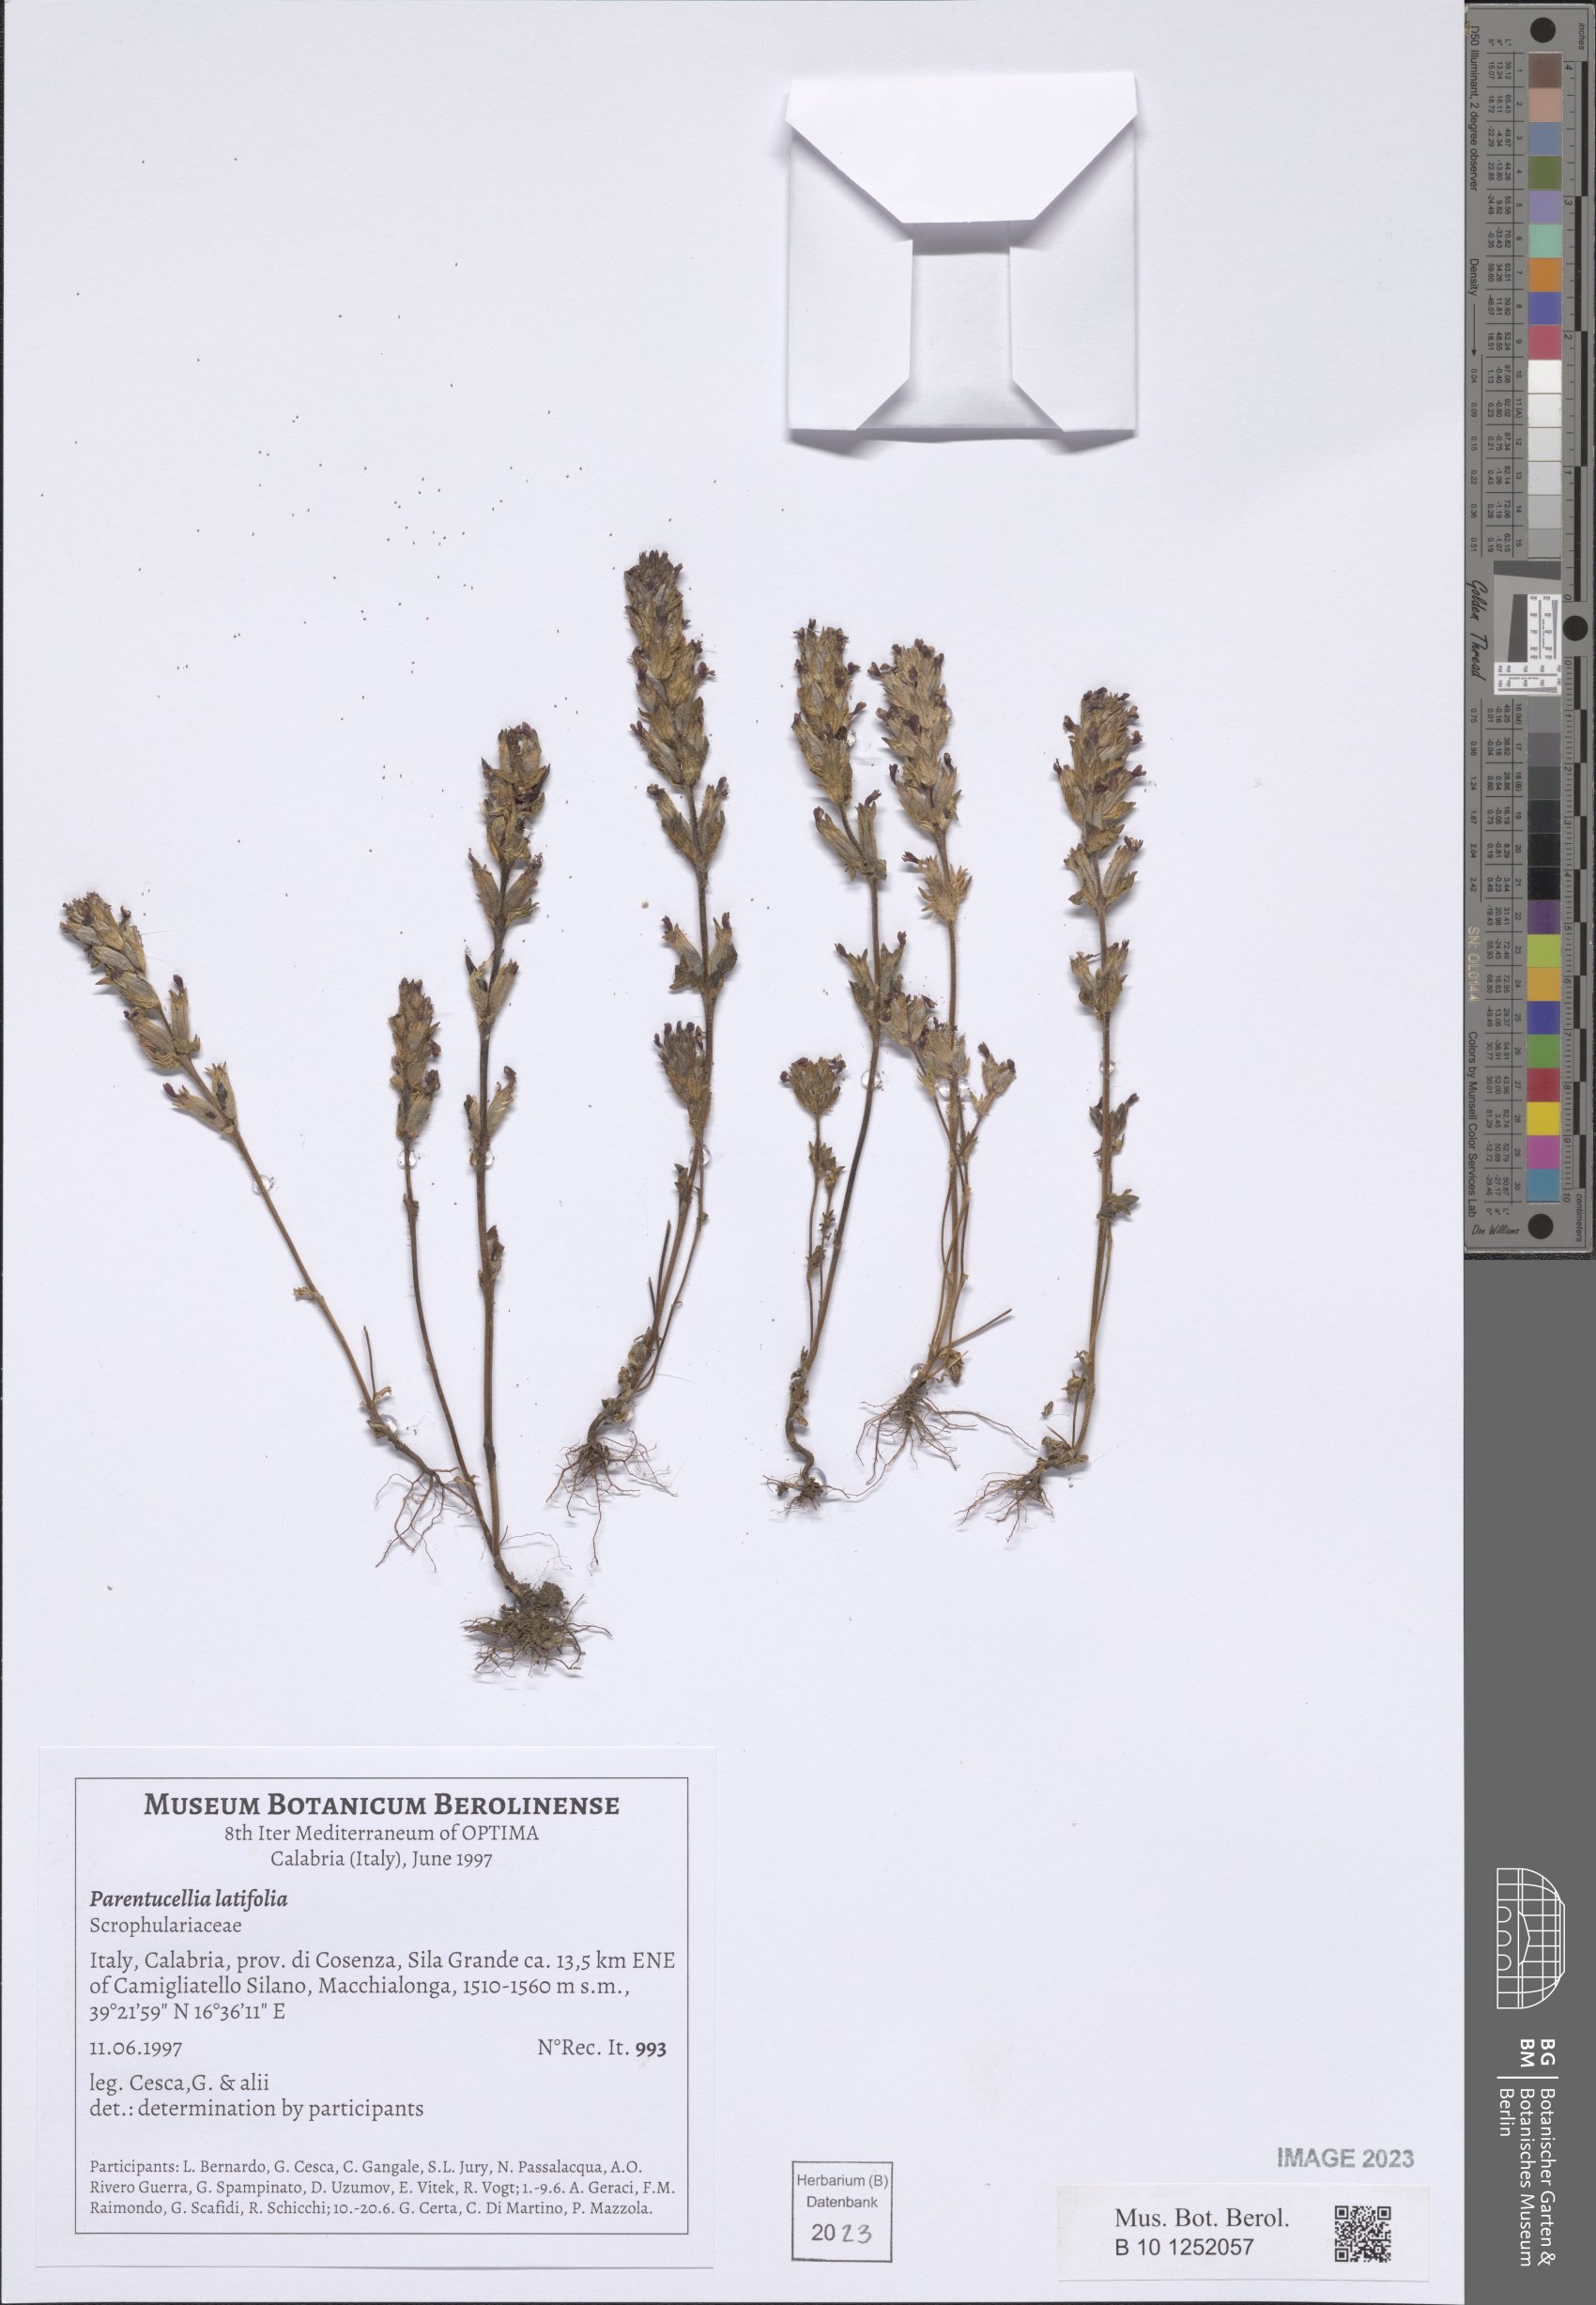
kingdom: Plantae
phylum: Tracheophyta
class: Magnoliopsida
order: Lamiales
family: Orobanchaceae
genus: Parentucellia
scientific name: Parentucellia latifolia
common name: Broadleaf glandweed
